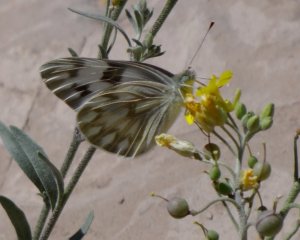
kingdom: Animalia
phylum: Arthropoda
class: Insecta
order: Lepidoptera
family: Pieridae
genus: Pontia
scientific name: Pontia protodice
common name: Checkered White
